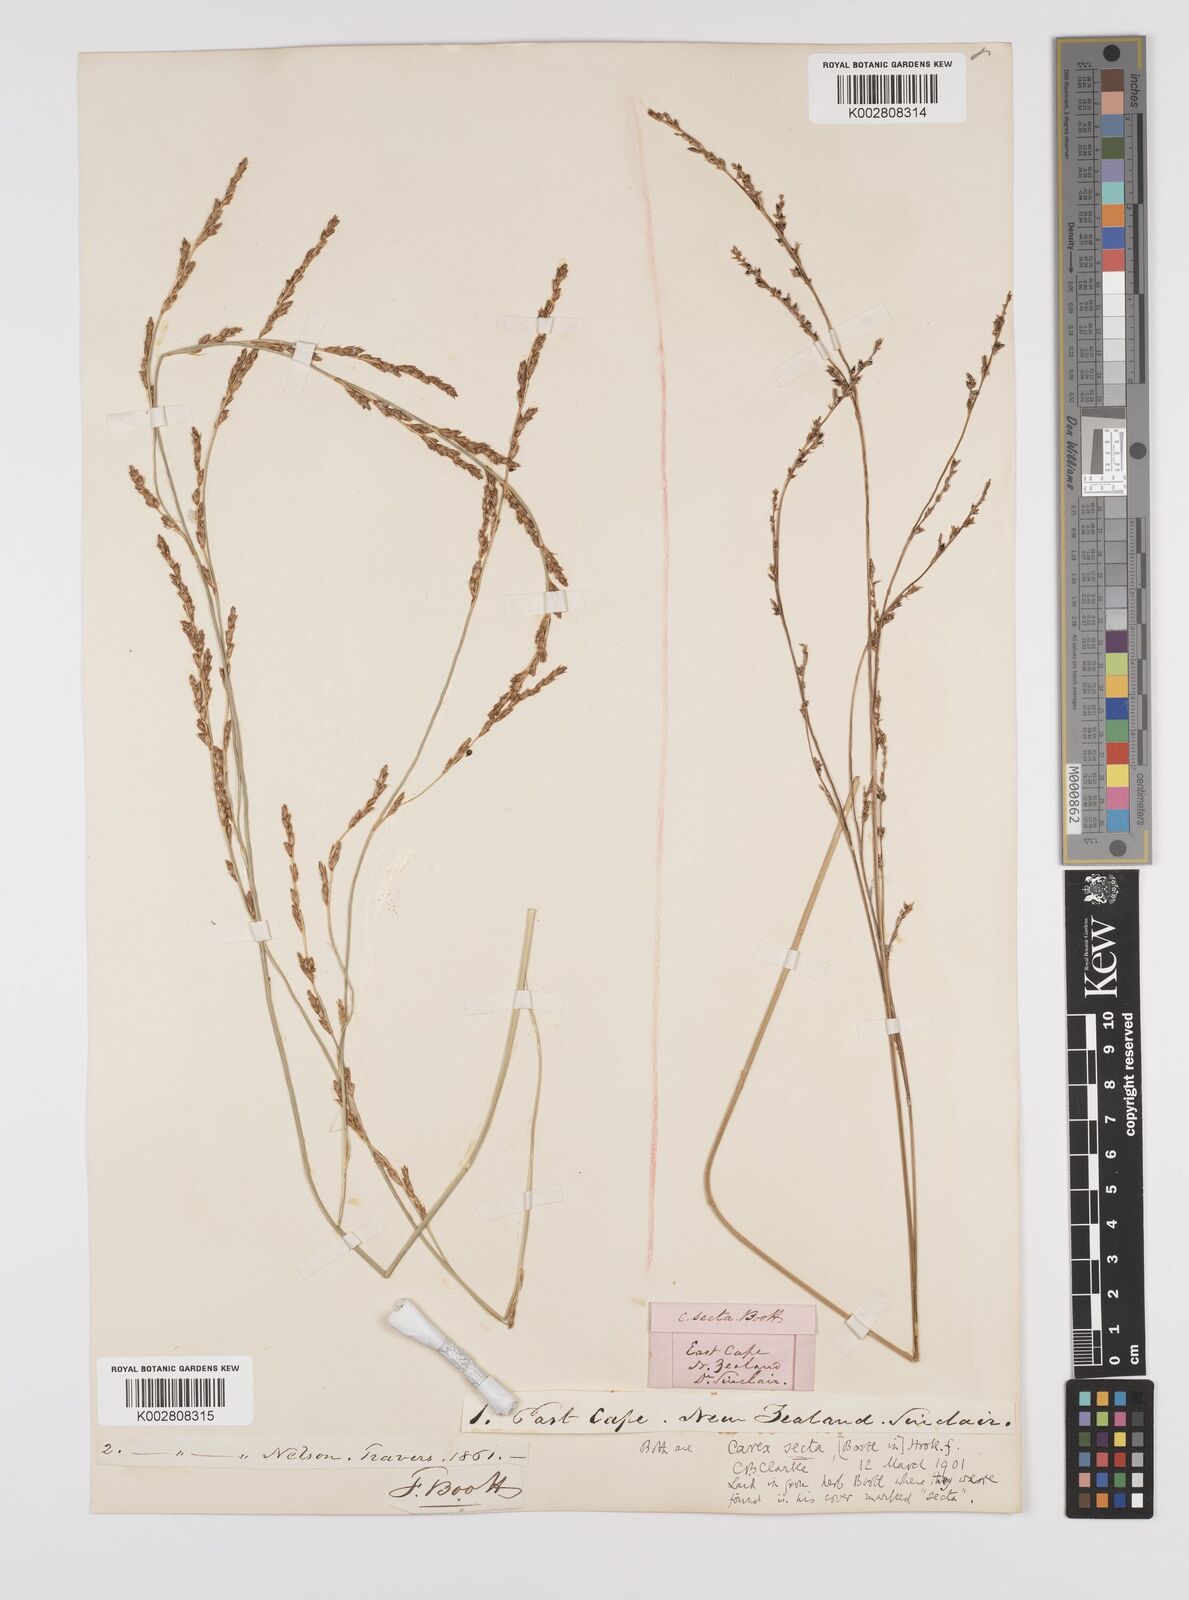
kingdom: Plantae
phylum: Tracheophyta
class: Liliopsida
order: Poales
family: Cyperaceae
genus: Carex
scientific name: Carex appressa
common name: Tussock sedge
